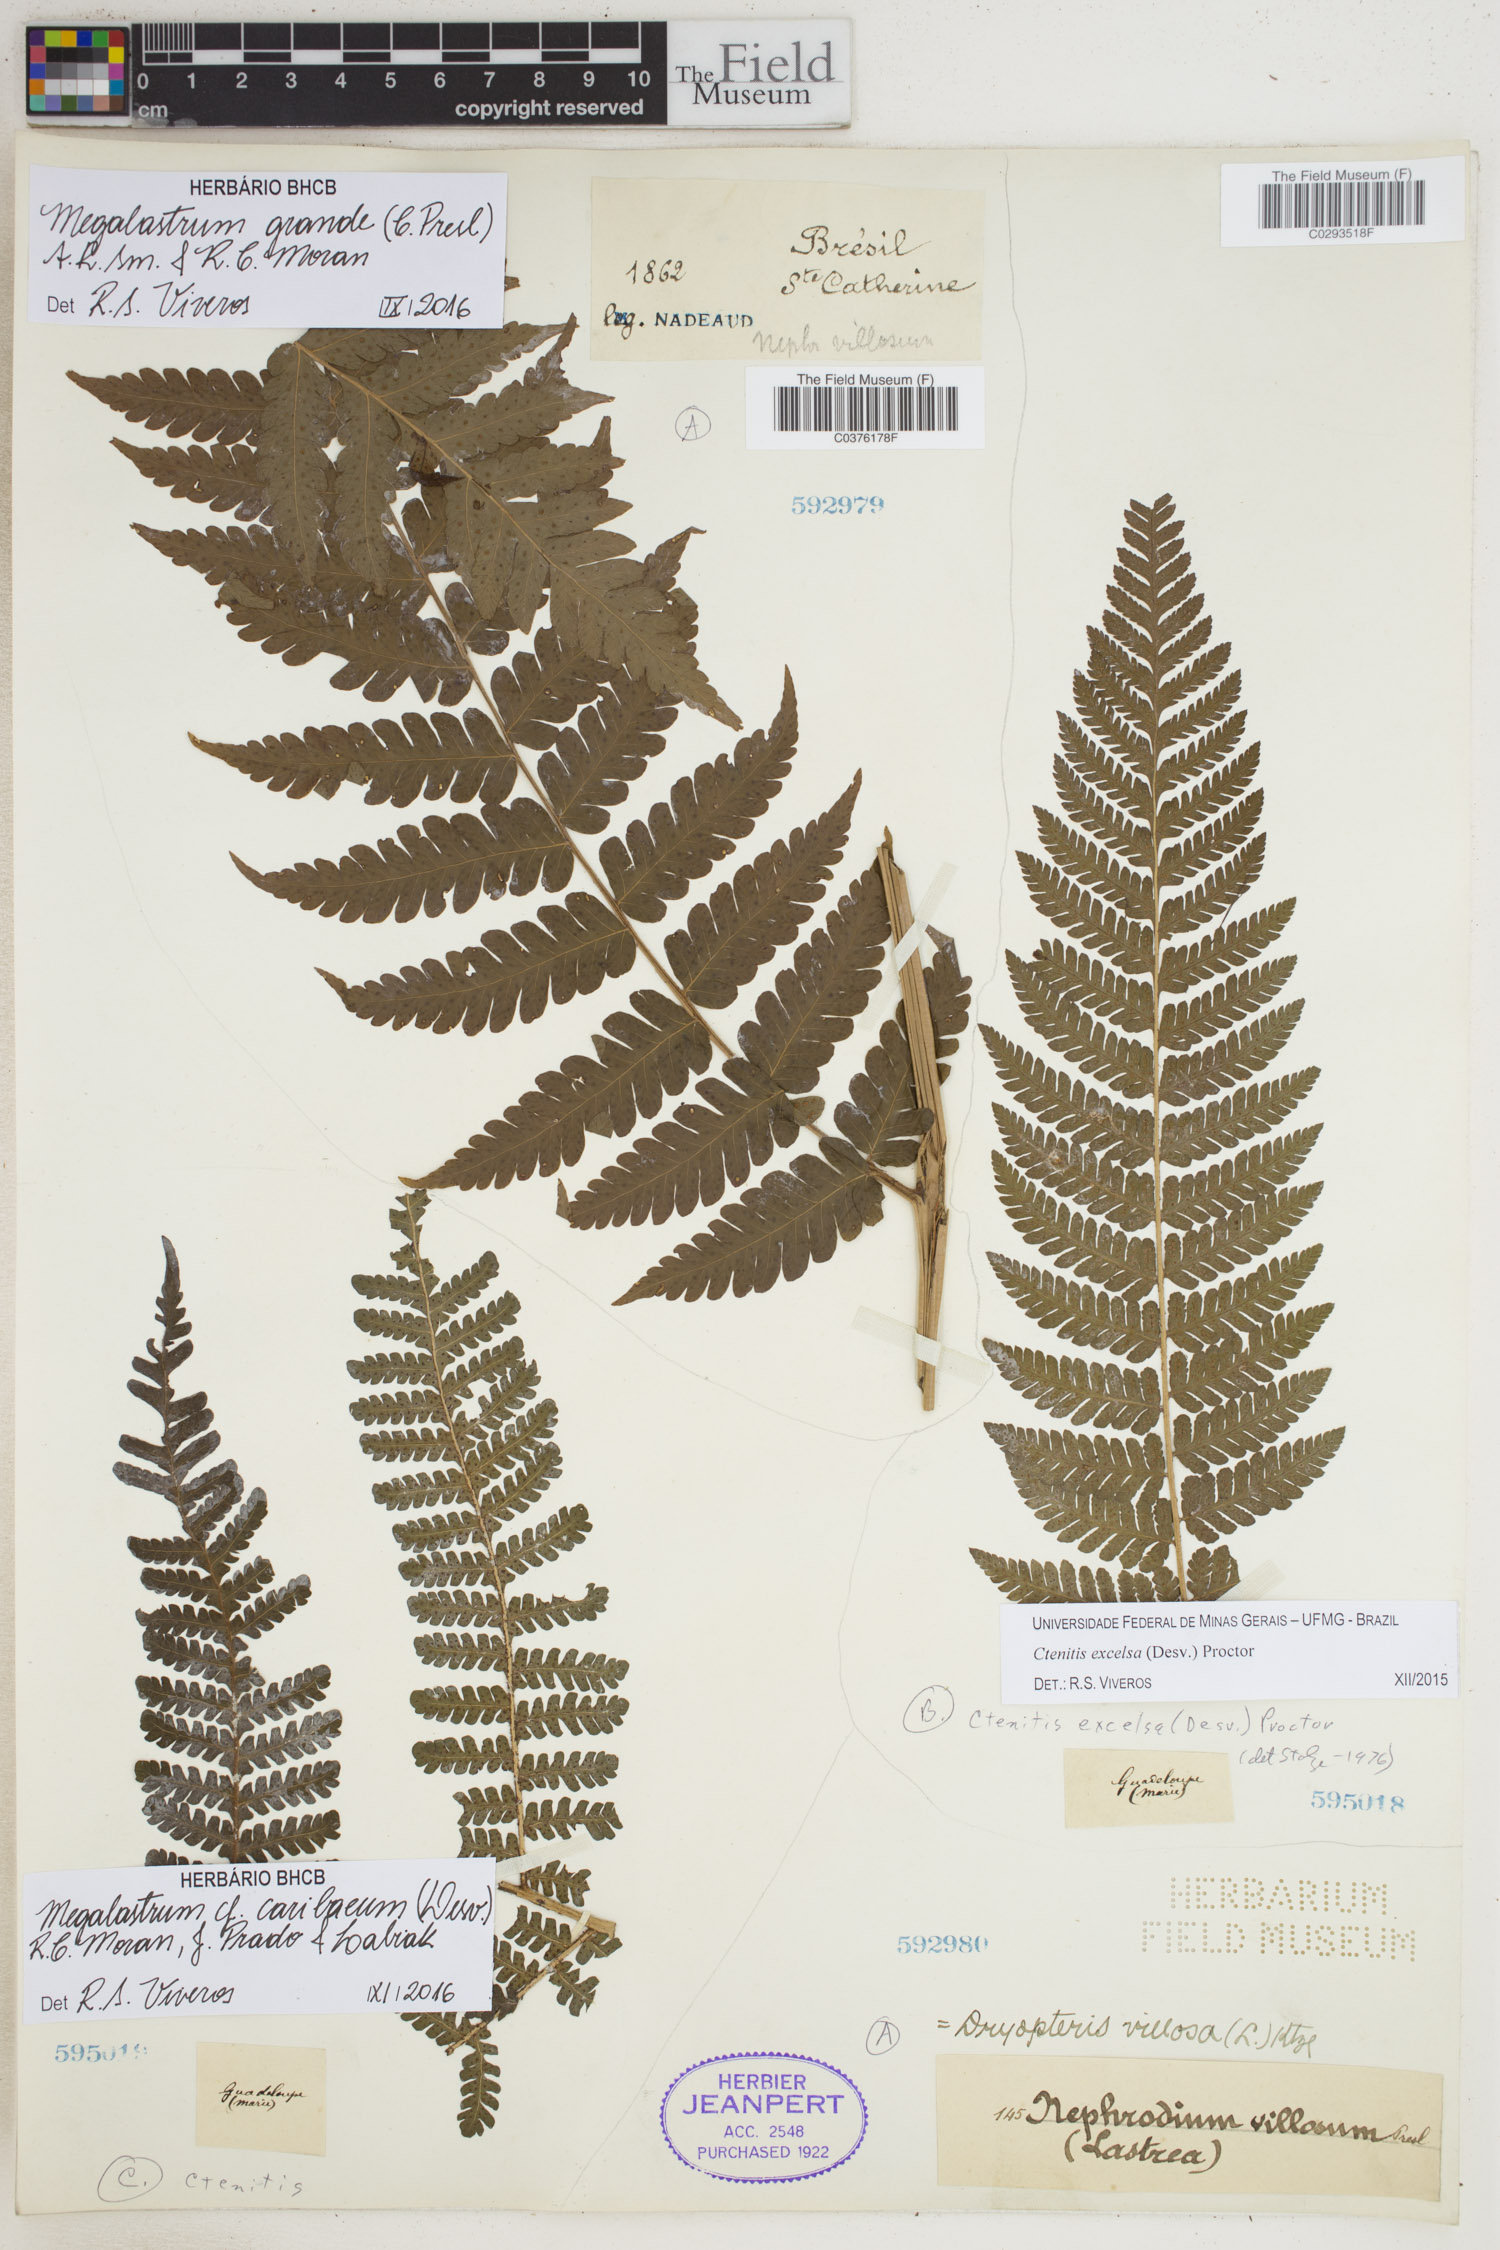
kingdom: Plantae
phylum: Tracheophyta
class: Polypodiopsida
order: Polypodiales
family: Dryopteridaceae
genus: Megalastrum
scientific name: Megalastrum grande
